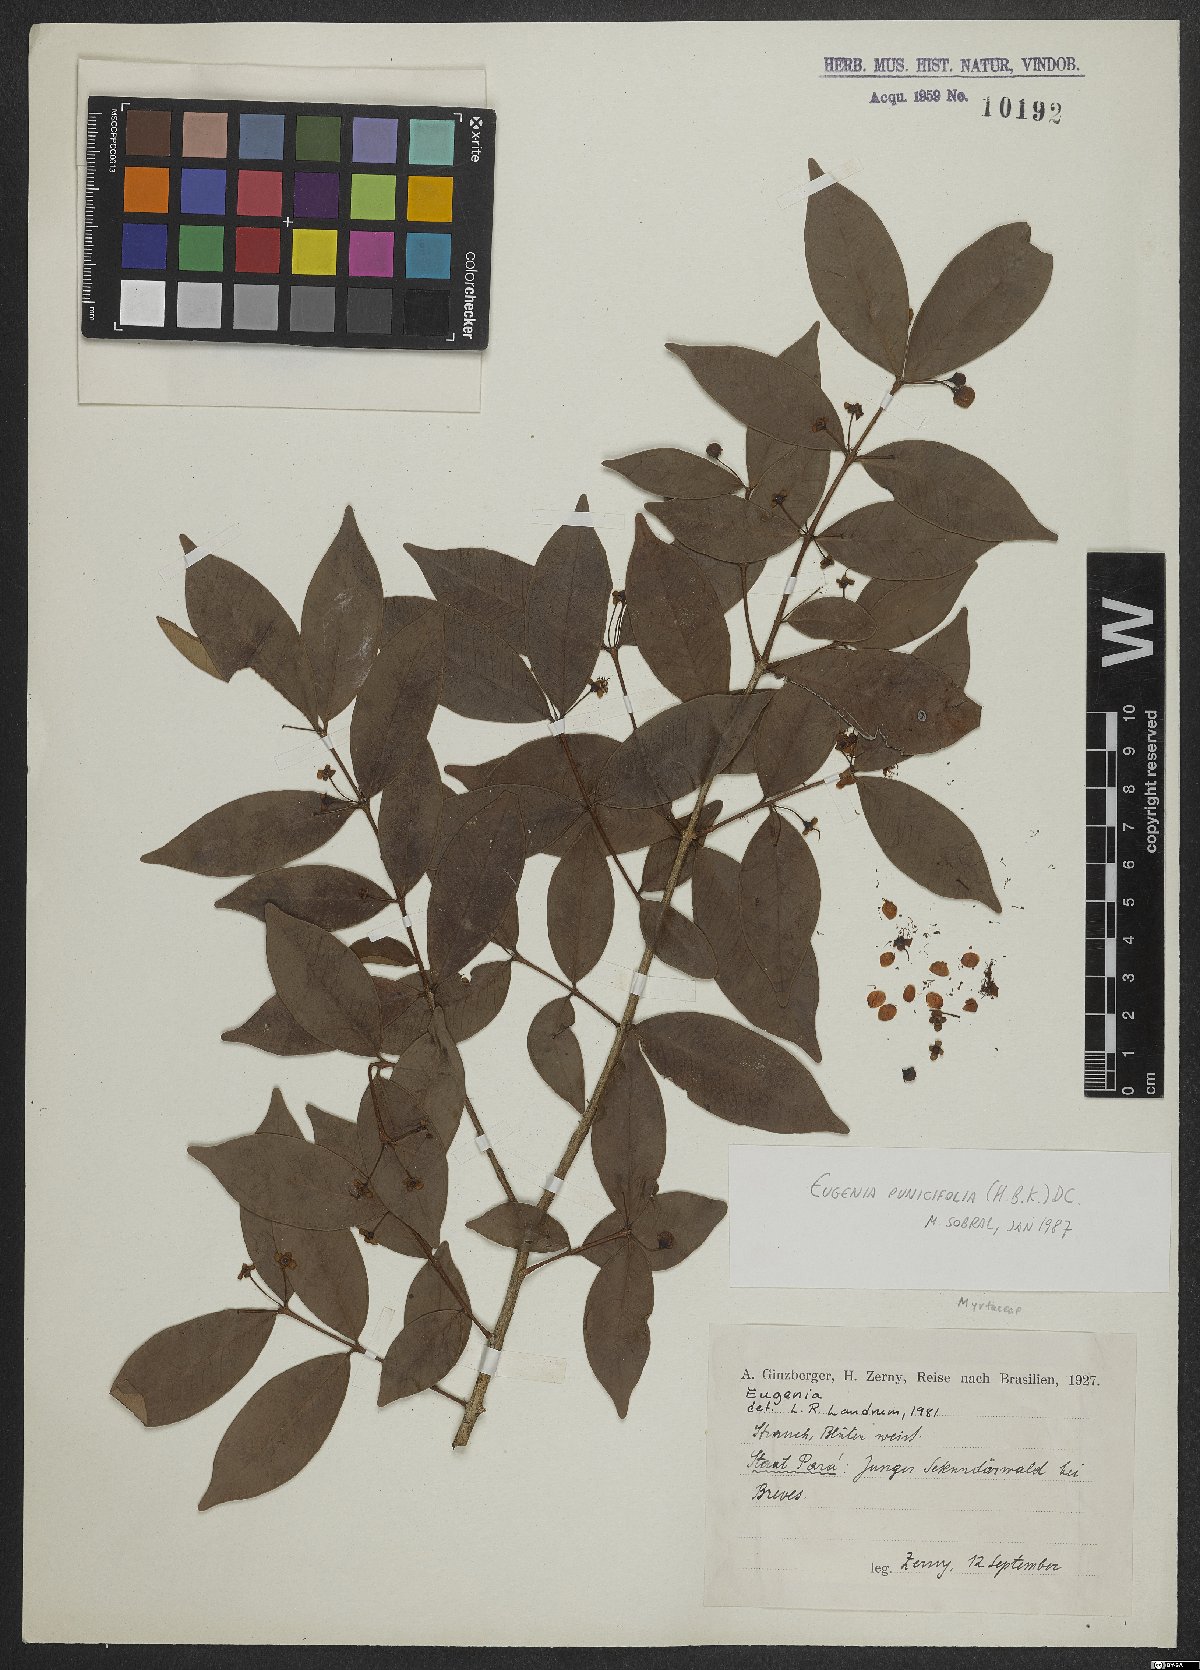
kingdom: Plantae
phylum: Tracheophyta
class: Magnoliopsida
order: Myrtales
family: Myrtaceae
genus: Eugenia
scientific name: Eugenia punicifolia
